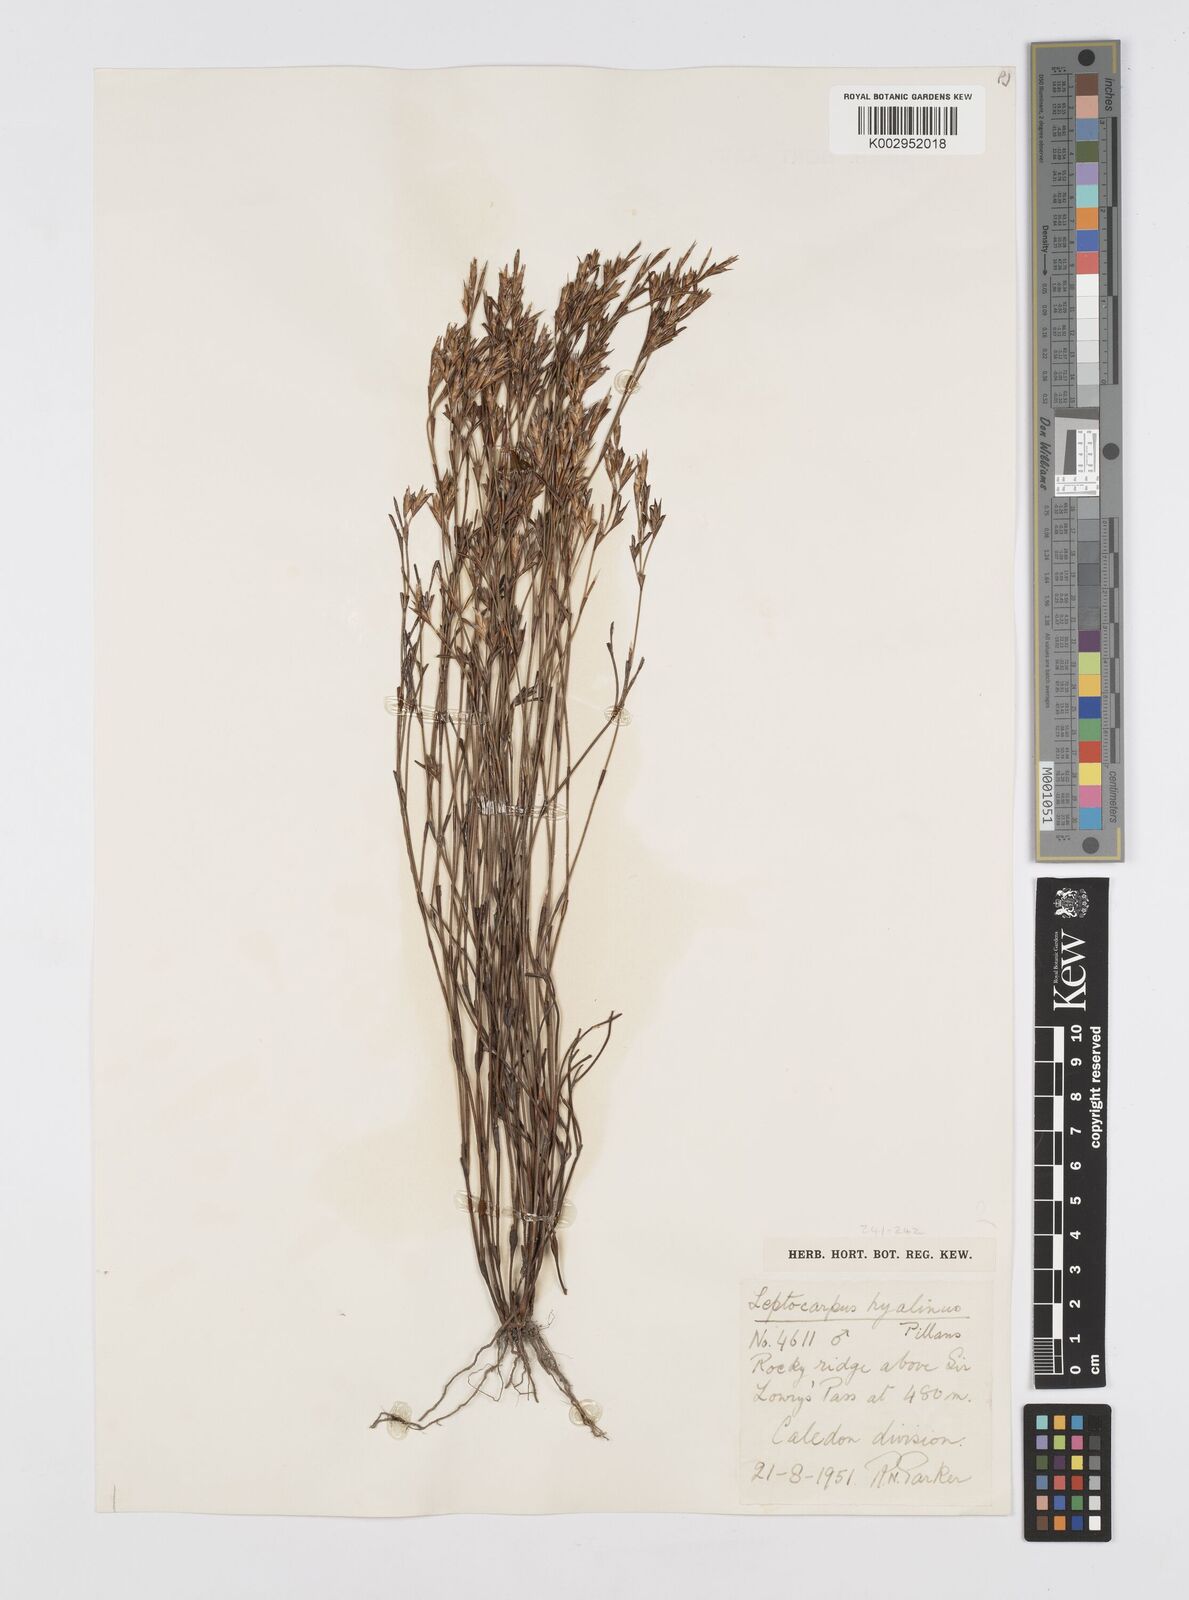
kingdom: Plantae
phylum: Tracheophyta
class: Liliopsida
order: Poales
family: Restionaceae
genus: Restio
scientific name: Restio hyalinus
